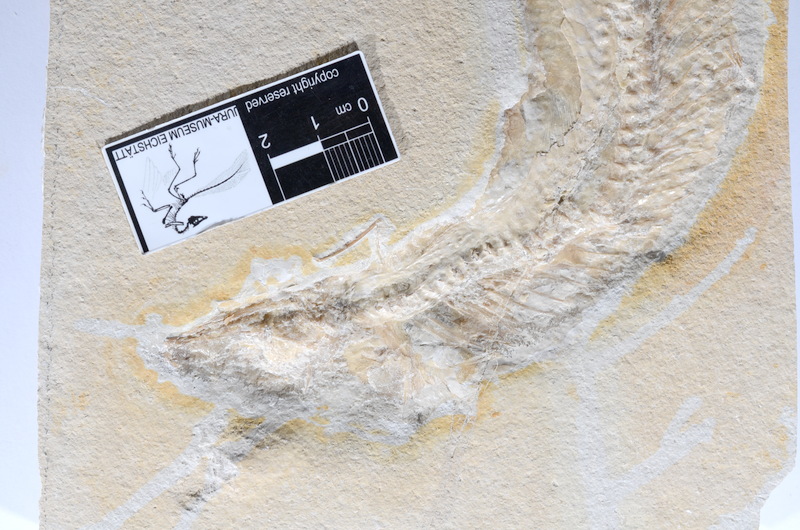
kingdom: Animalia
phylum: Chordata
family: Allothrissopidae
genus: Allothrissops
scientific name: Allothrissops
